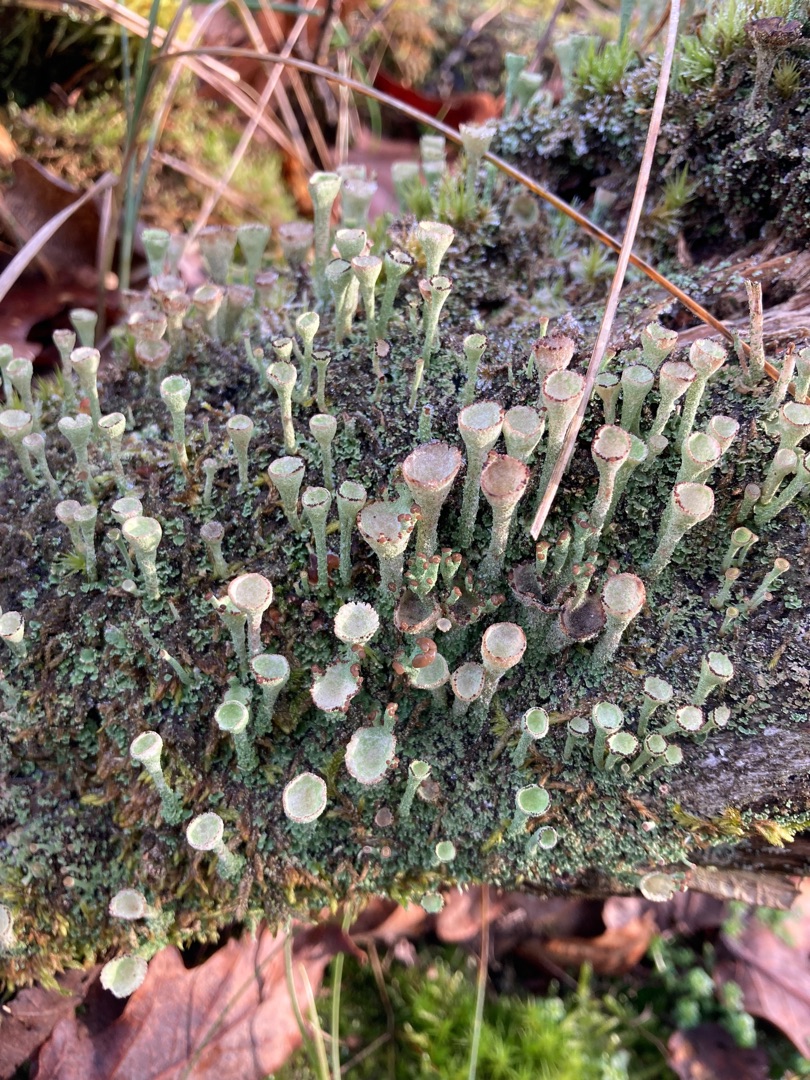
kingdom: Fungi
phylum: Ascomycota
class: Lecanoromycetes
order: Lecanorales
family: Cladoniaceae
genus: Cladonia
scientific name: Cladonia pyxidata
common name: Tragt-bægerlav
